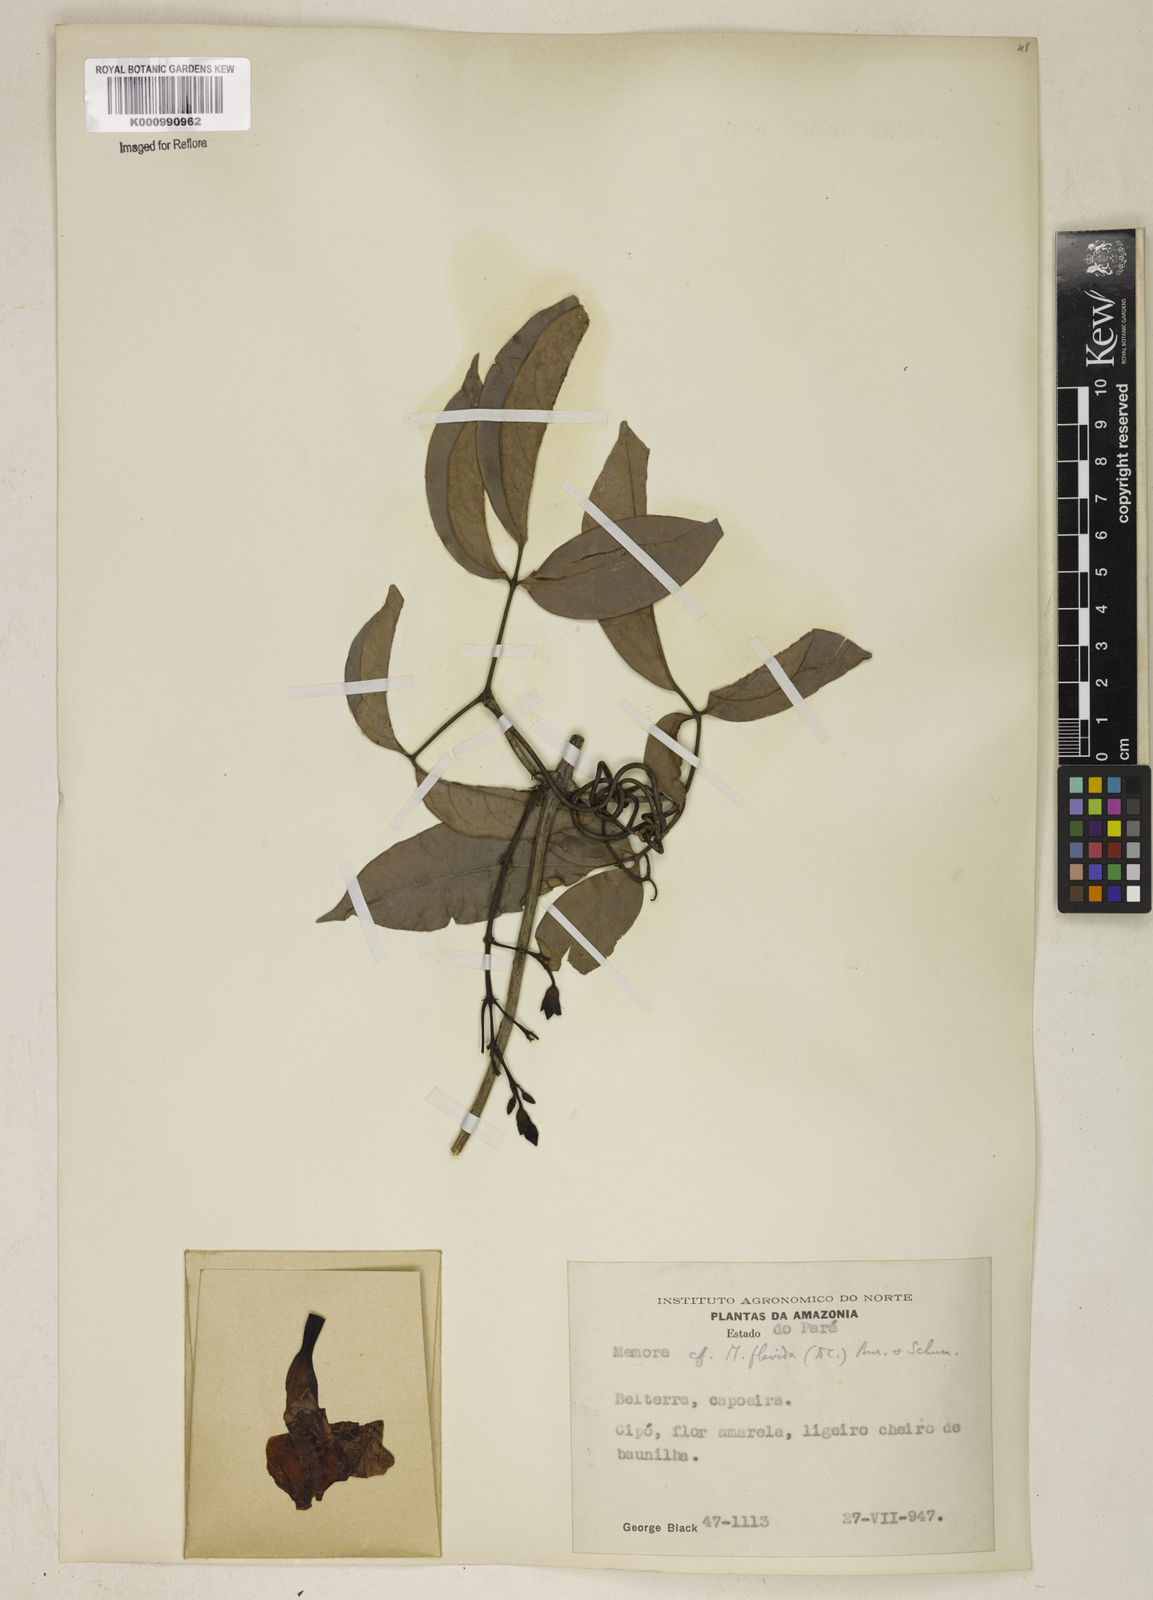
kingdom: Plantae
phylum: Tracheophyta
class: Magnoliopsida
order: Lamiales
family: Bignoniaceae
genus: Adenocalymma
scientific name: Adenocalymma neoflavidum
